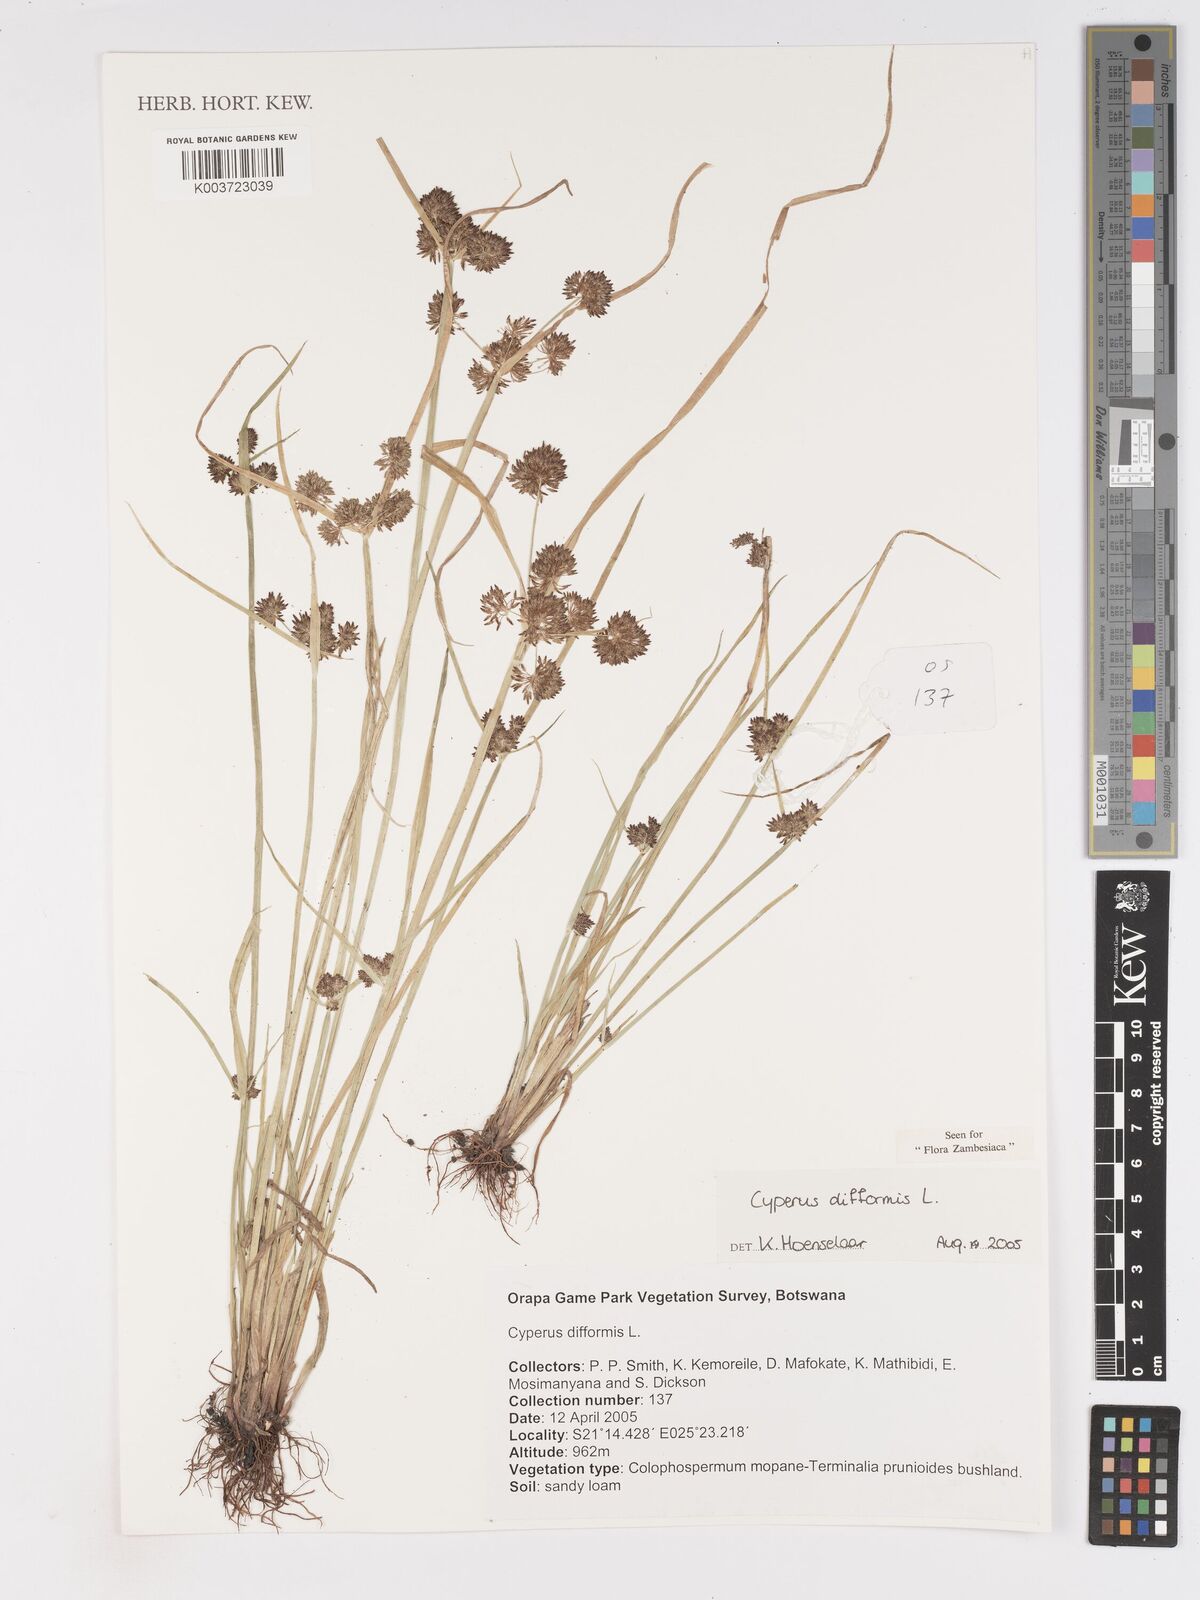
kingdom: Plantae
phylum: Tracheophyta
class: Liliopsida
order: Poales
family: Cyperaceae
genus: Cyperus
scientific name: Cyperus difformis
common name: Variable flatsedge
